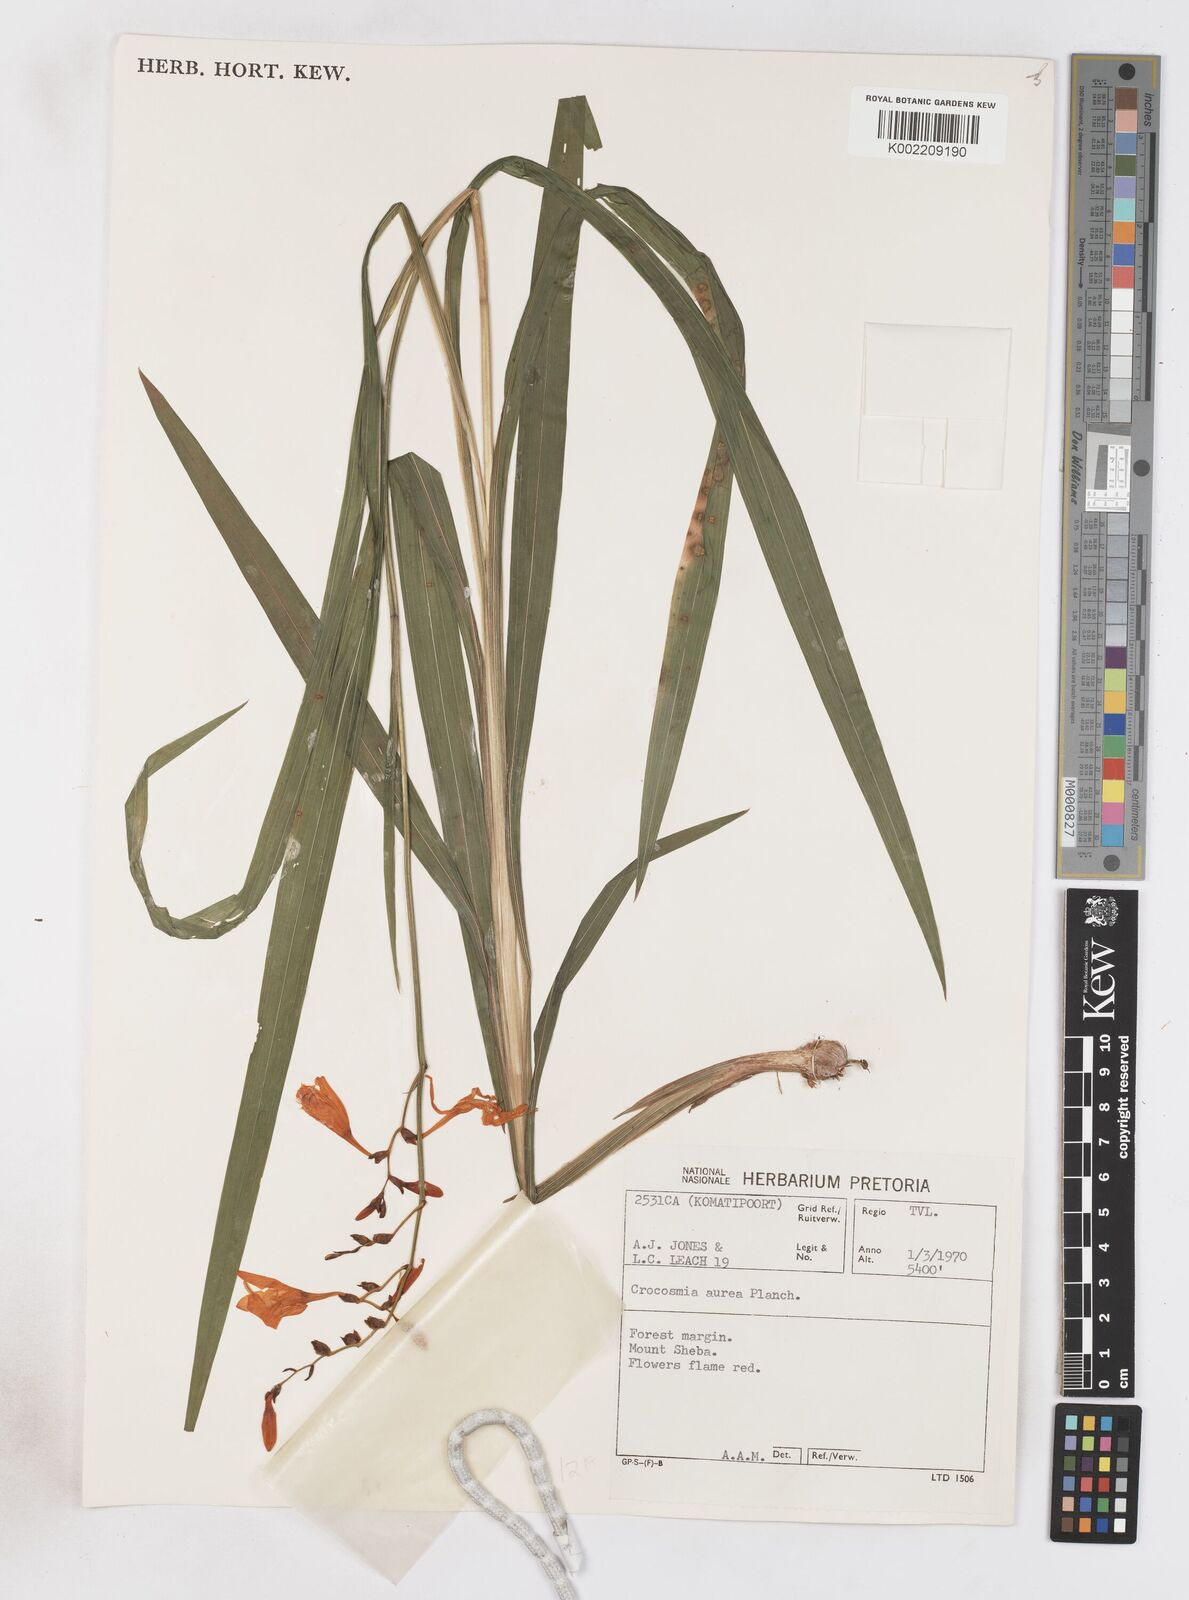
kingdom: Plantae
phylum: Tracheophyta
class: Liliopsida
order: Asparagales
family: Iridaceae
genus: Crocosmia
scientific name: Crocosmia aurea
